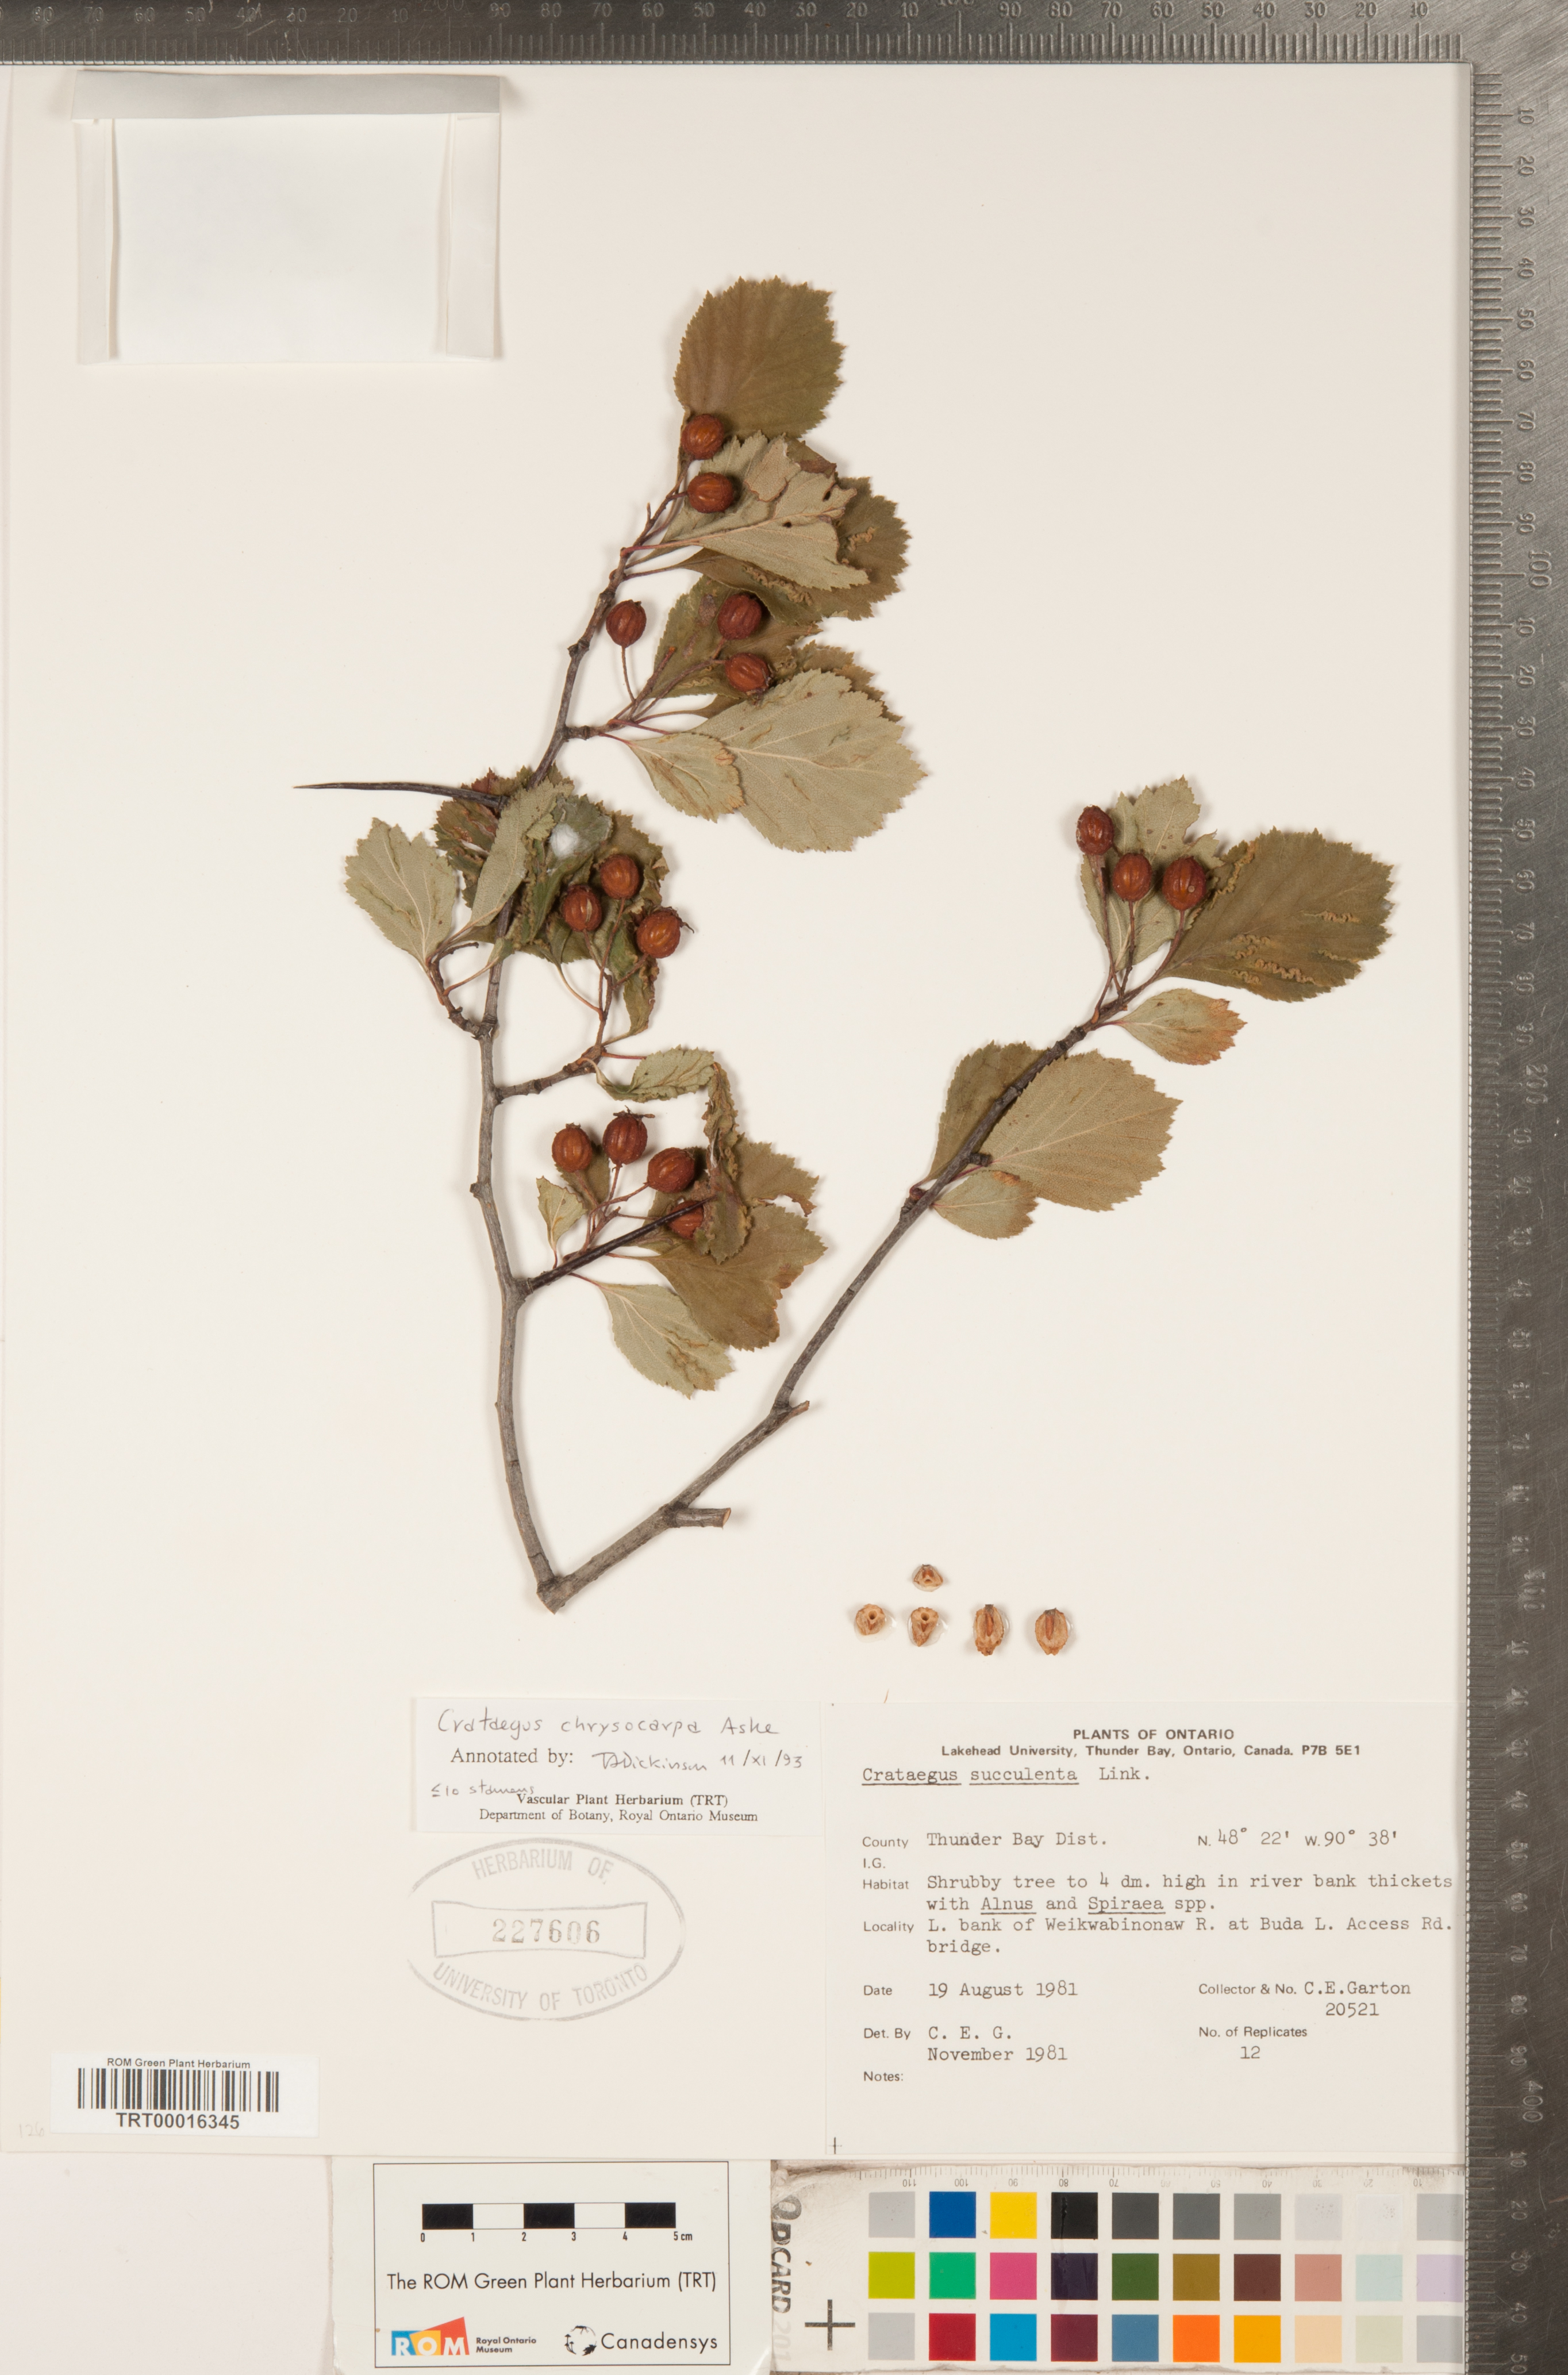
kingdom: Plantae
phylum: Tracheophyta
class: Magnoliopsida
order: Rosales
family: Rosaceae
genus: Crataegus
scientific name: Crataegus chrysocarpa
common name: Fire-berry hawthorn
